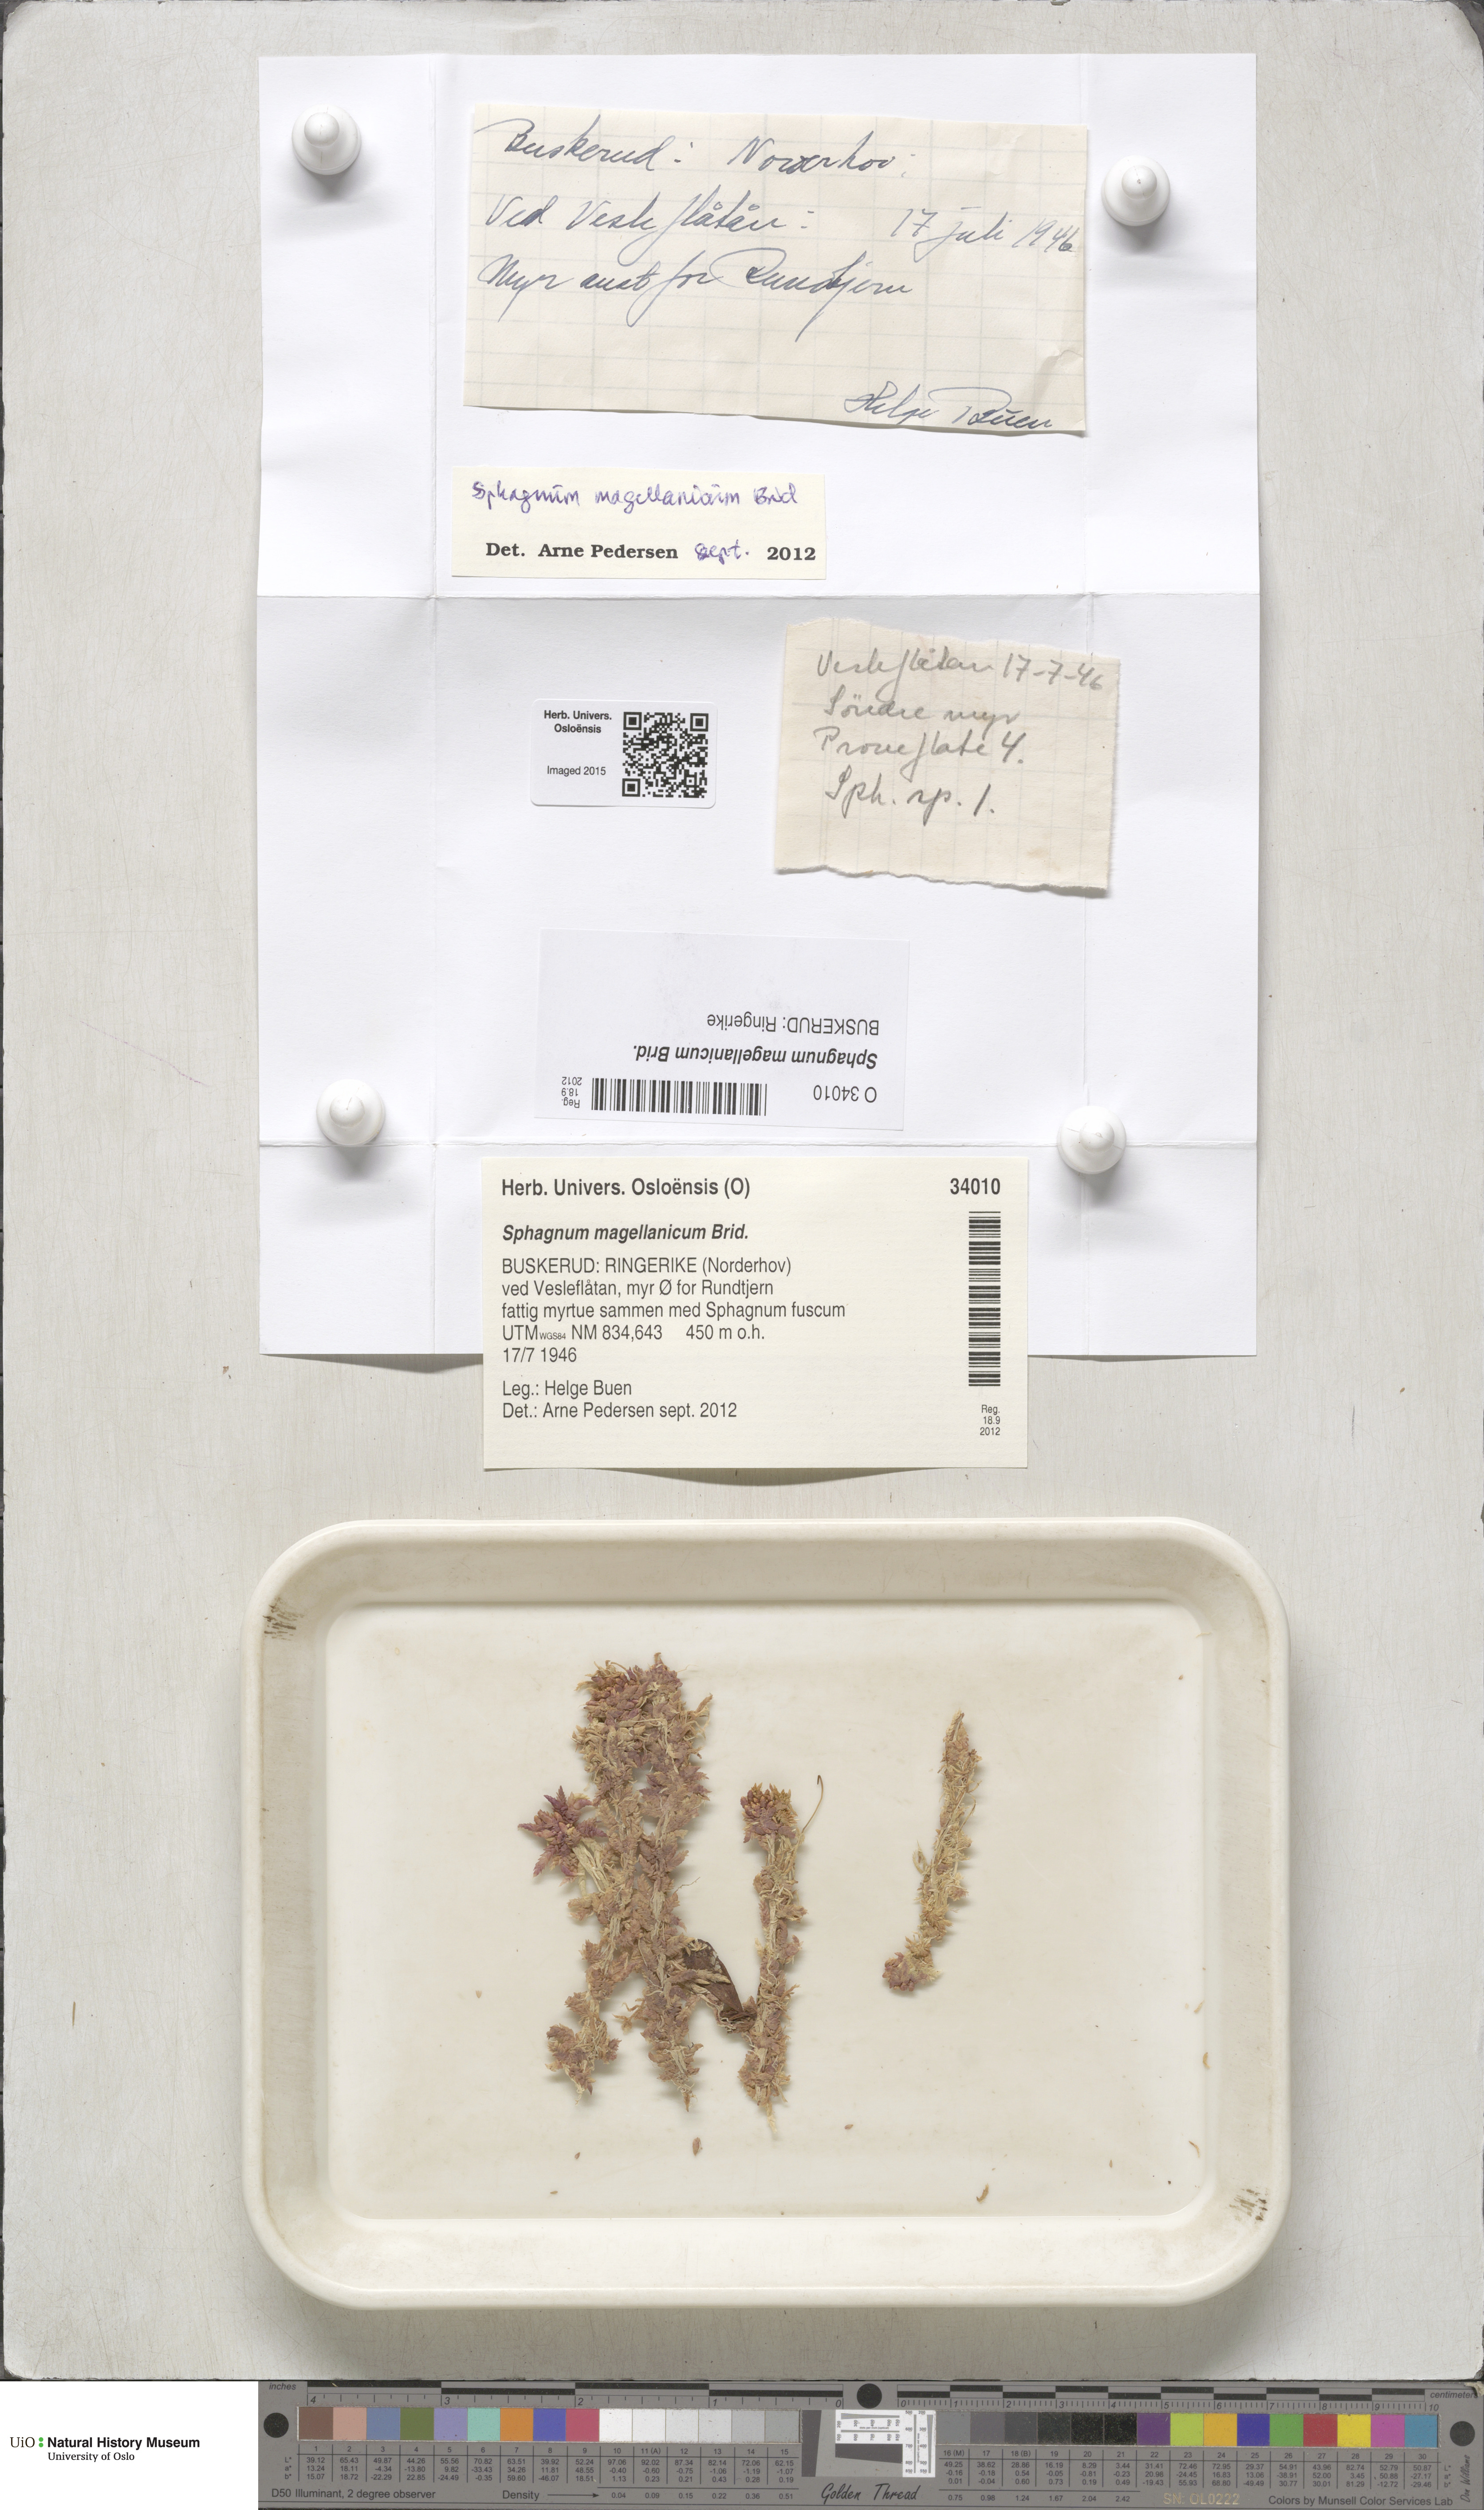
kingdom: Plantae
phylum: Bryophyta
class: Sphagnopsida
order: Sphagnales
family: Sphagnaceae
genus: Sphagnum
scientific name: Sphagnum magellanicum
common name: Magellan's peat moss
